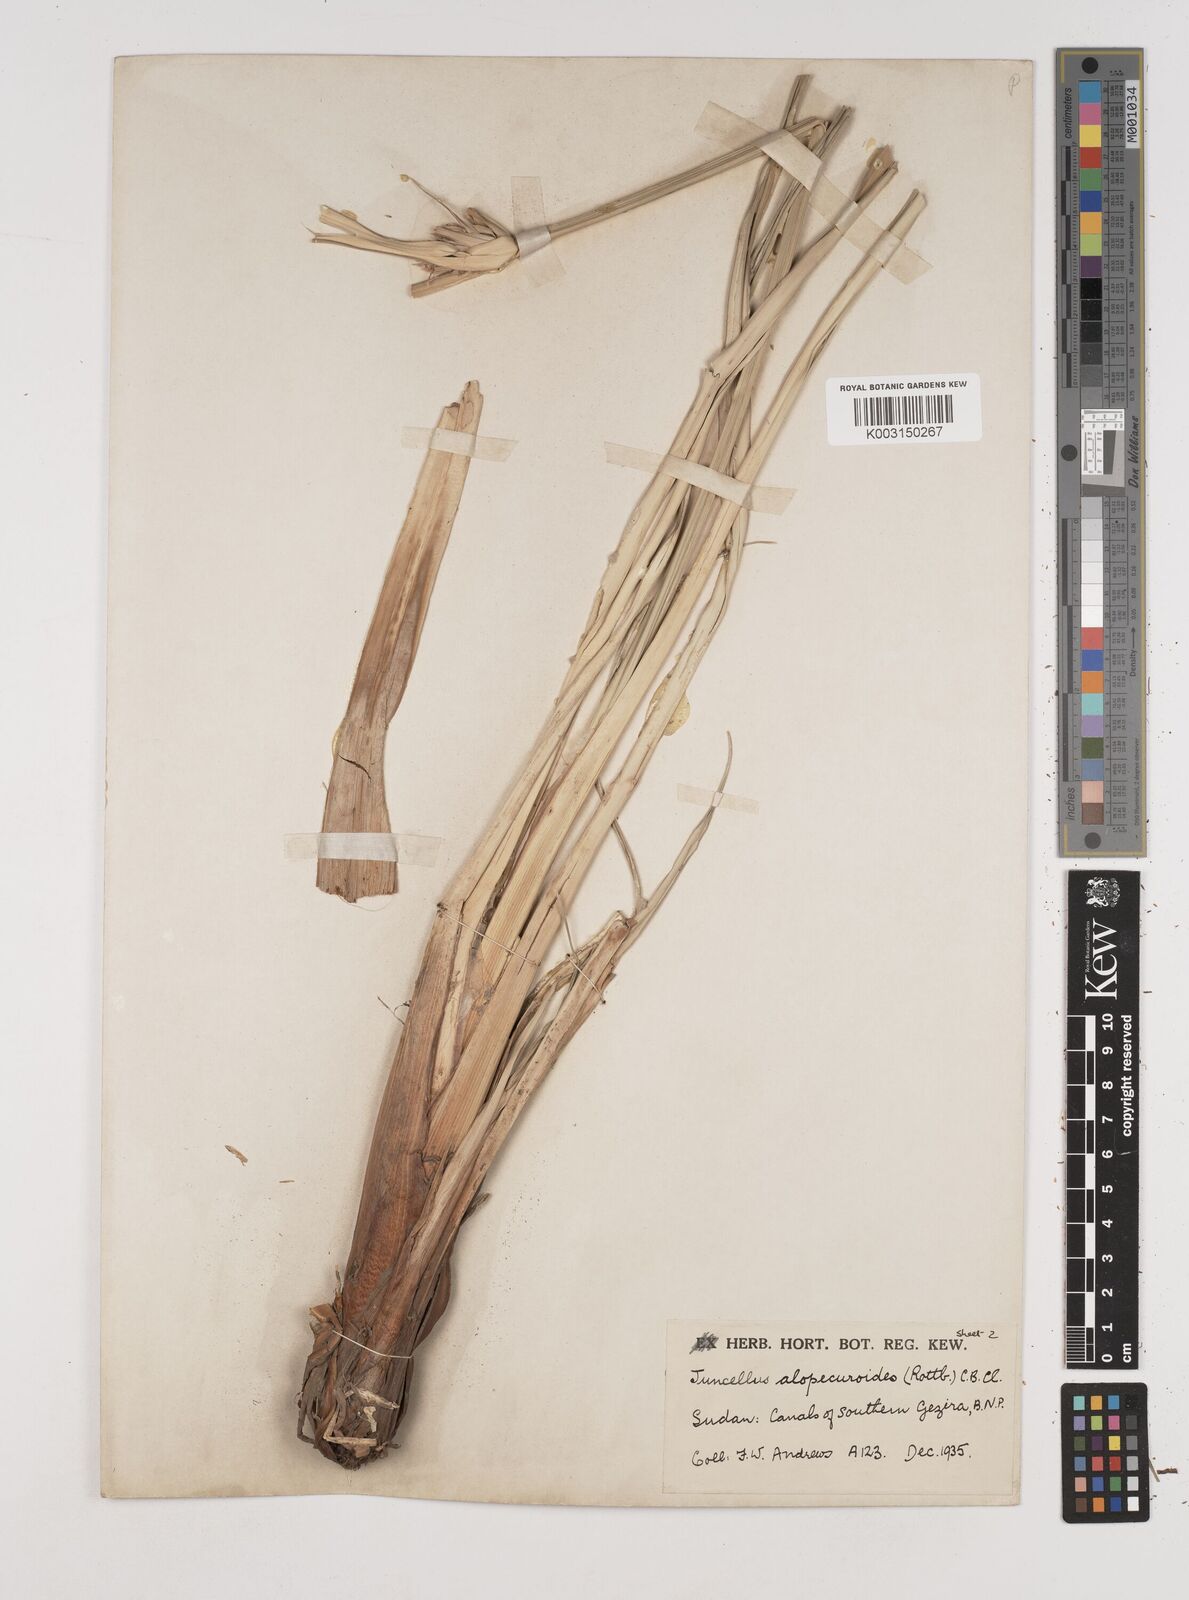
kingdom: Plantae
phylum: Tracheophyta
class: Liliopsida
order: Poales
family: Cyperaceae
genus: Cyperus
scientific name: Cyperus alopecuroides
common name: Foxtail flatsedge
